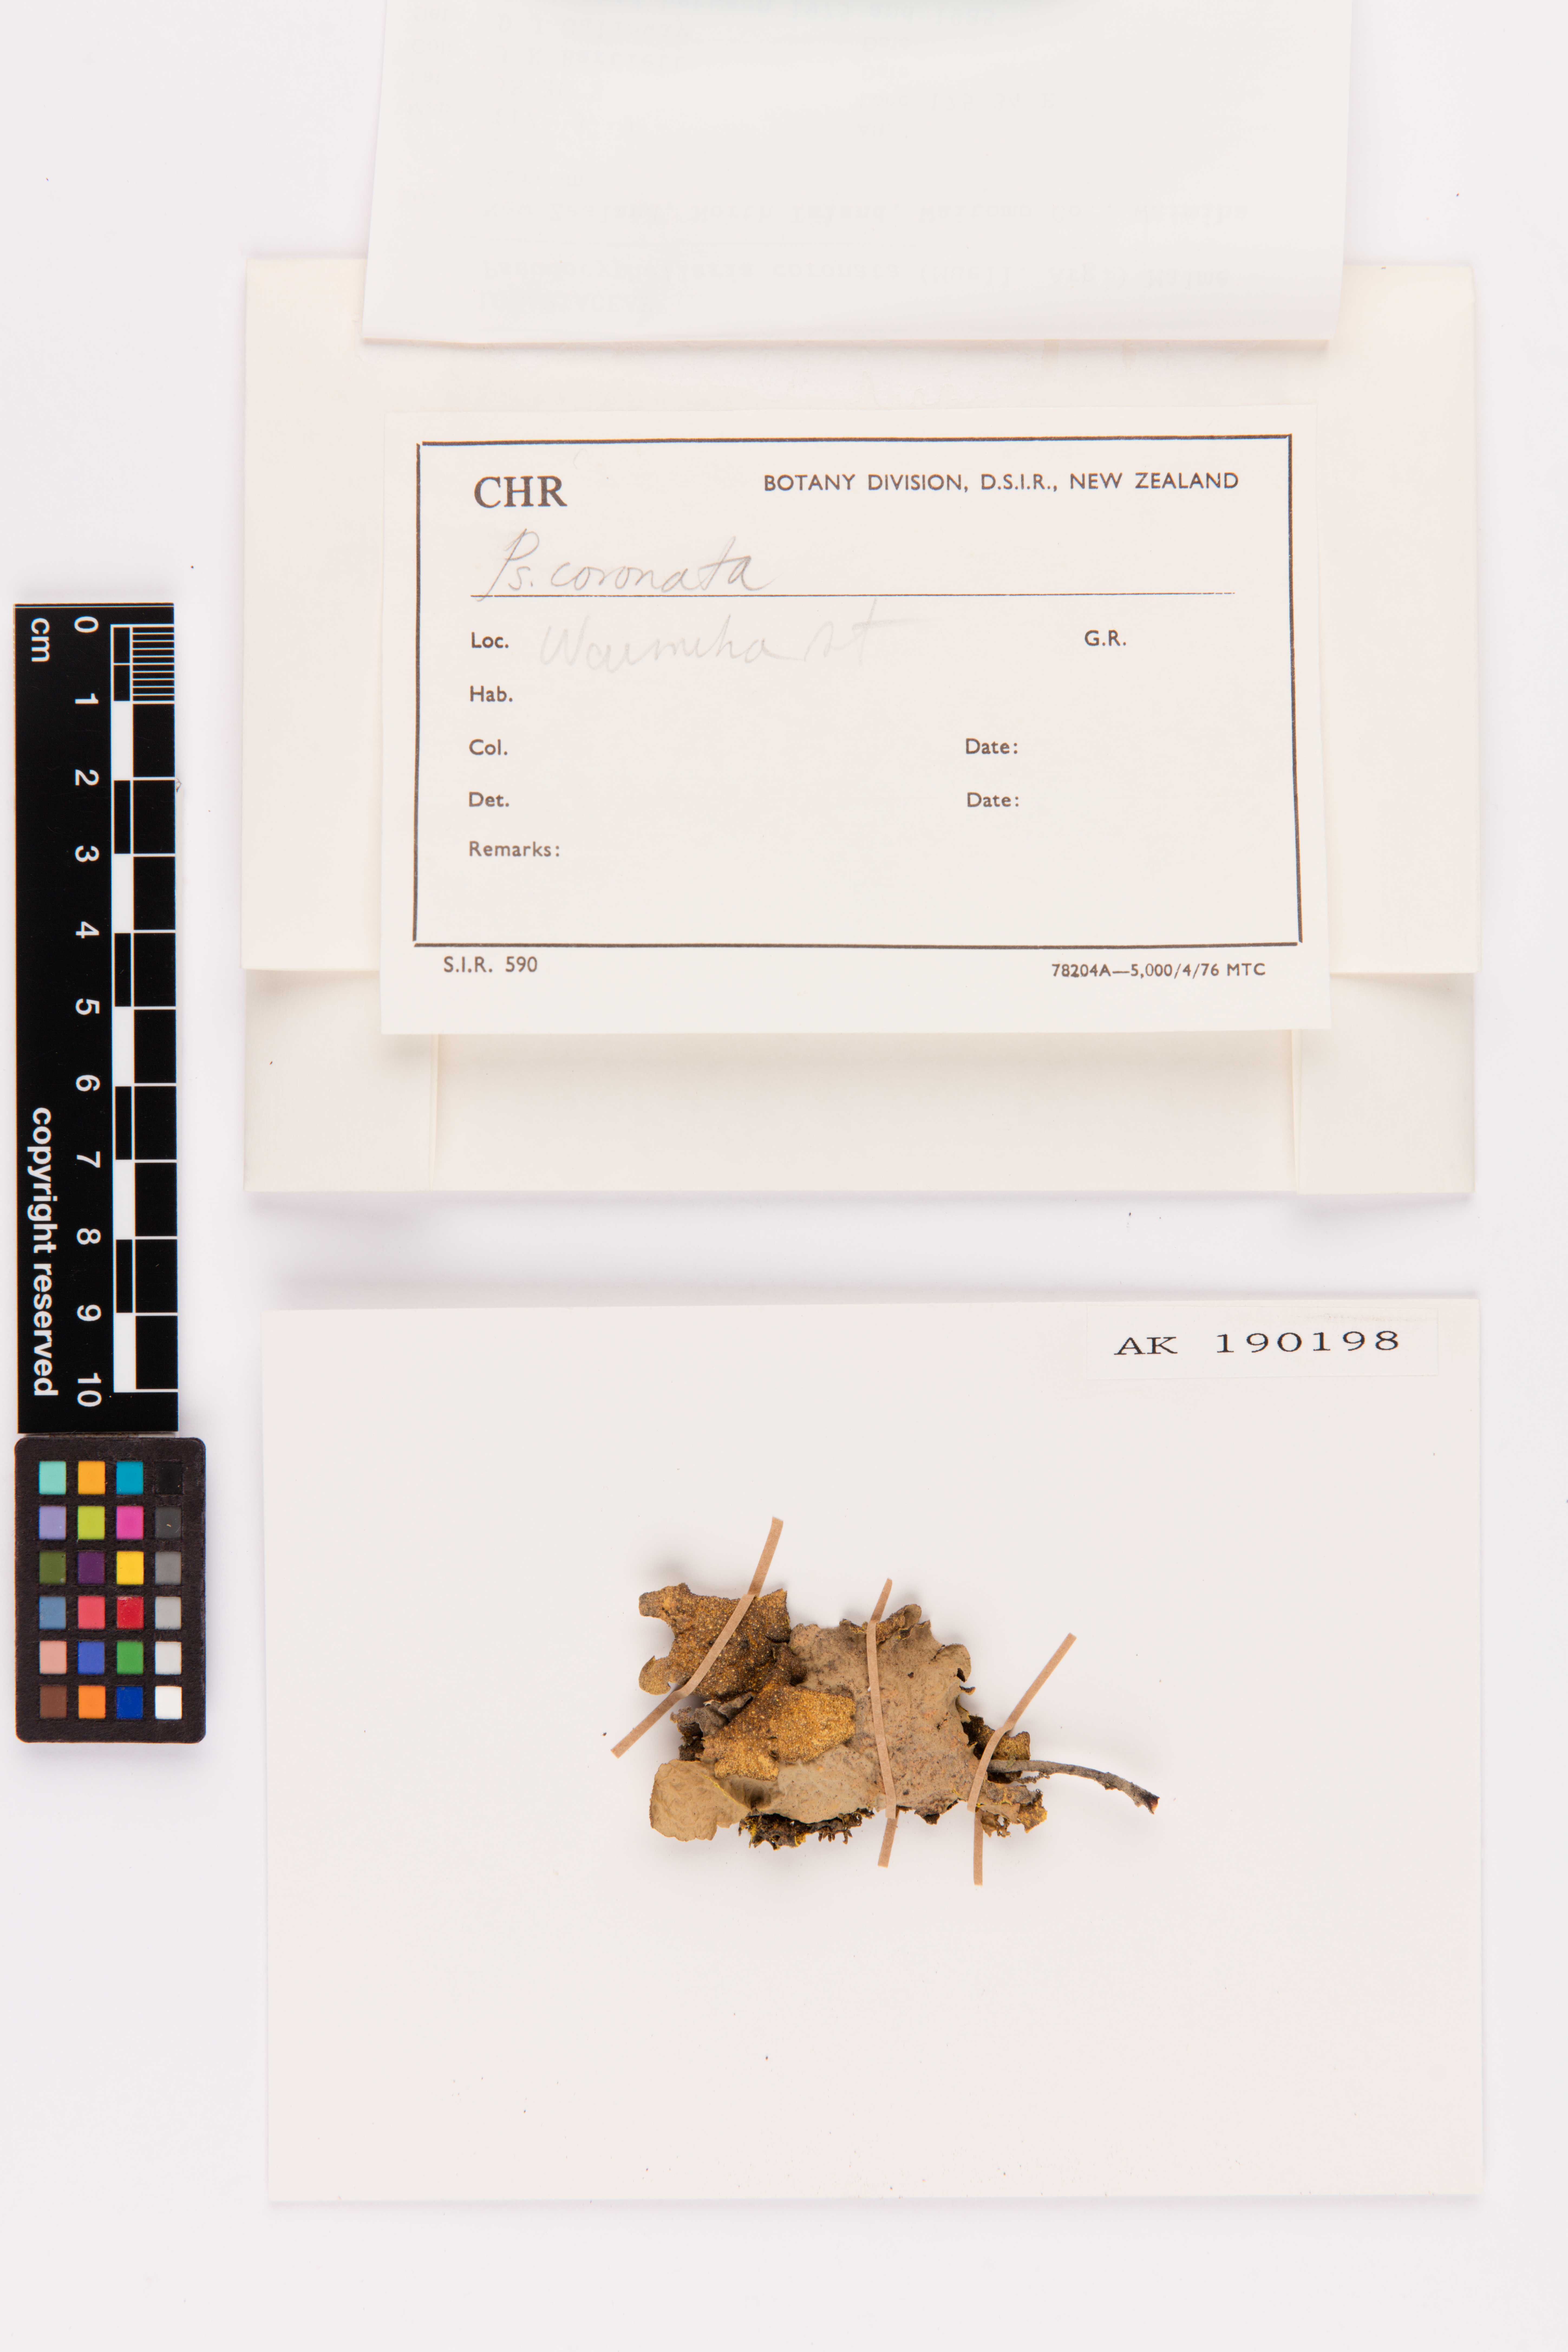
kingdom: Fungi
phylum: Ascomycota
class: Lecanoromycetes
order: Peltigerales
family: Lobariaceae
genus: Yarrumia
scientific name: Yarrumia coronata
